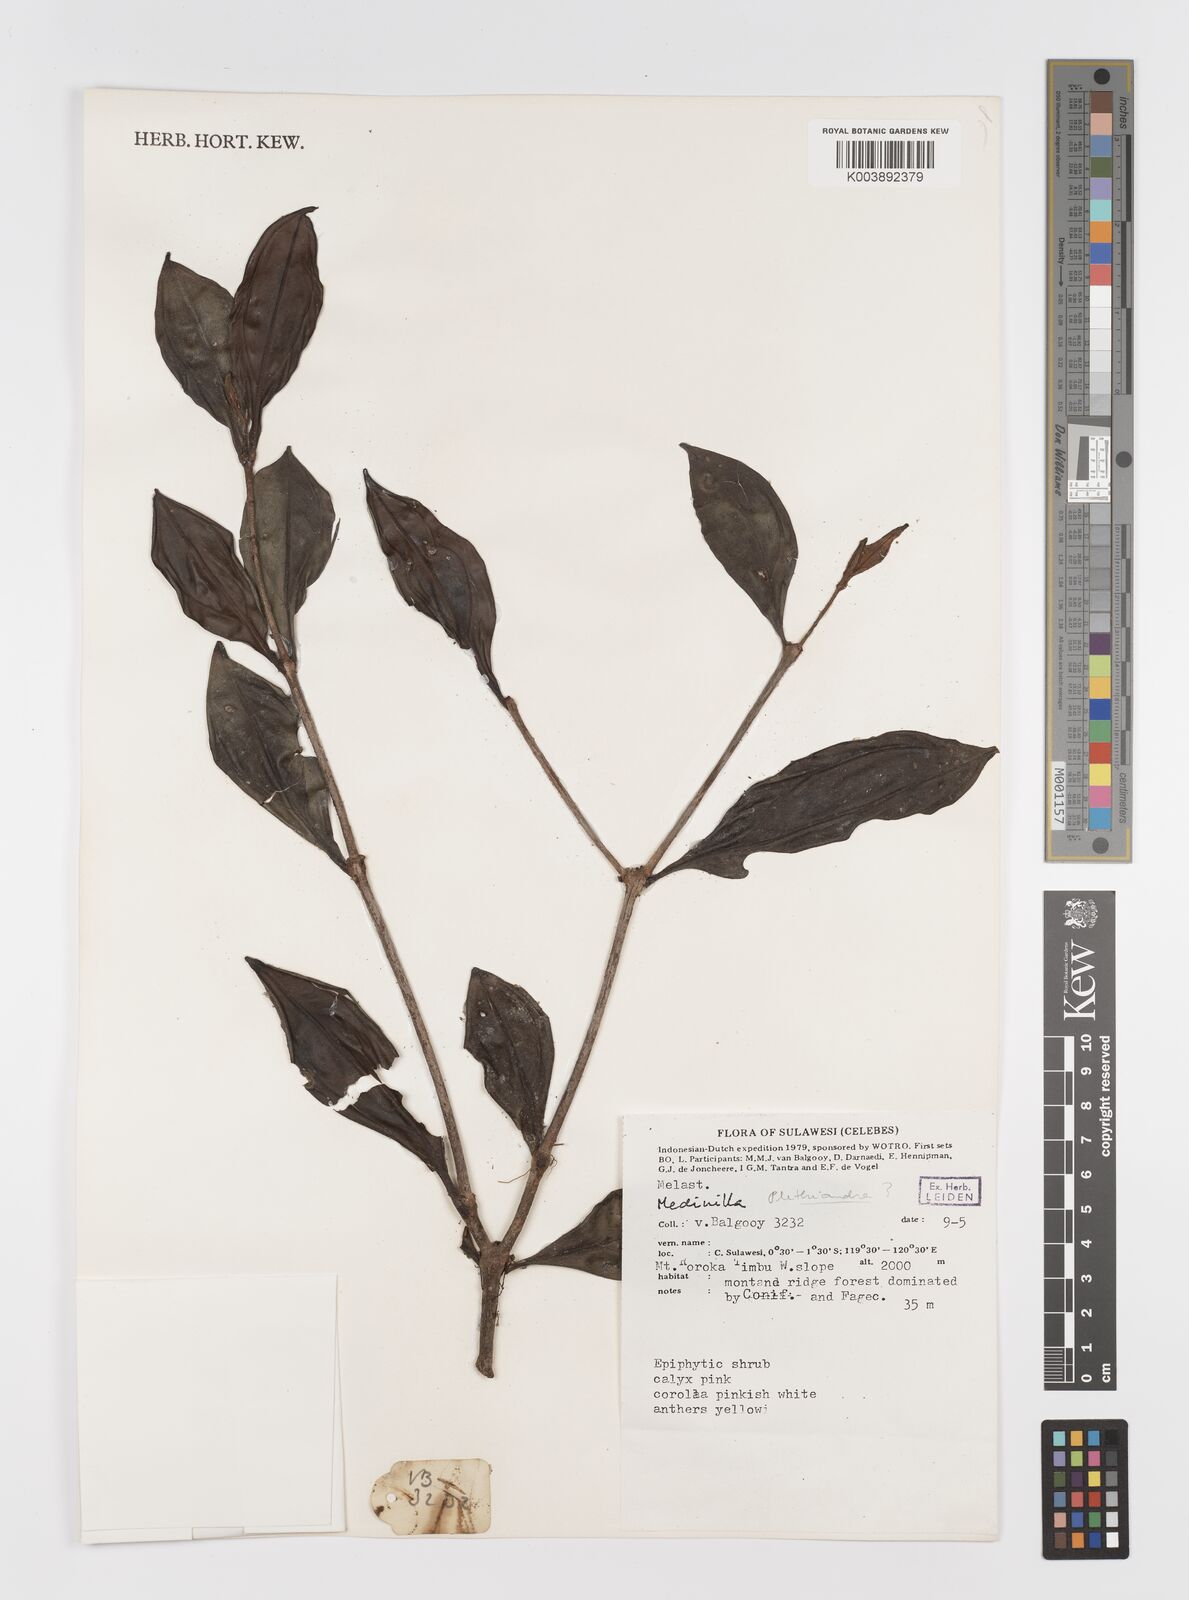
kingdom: Plantae
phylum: Tracheophyta
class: Magnoliopsida
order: Myrtales
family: Melastomataceae
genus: Medinilla
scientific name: Medinilla
